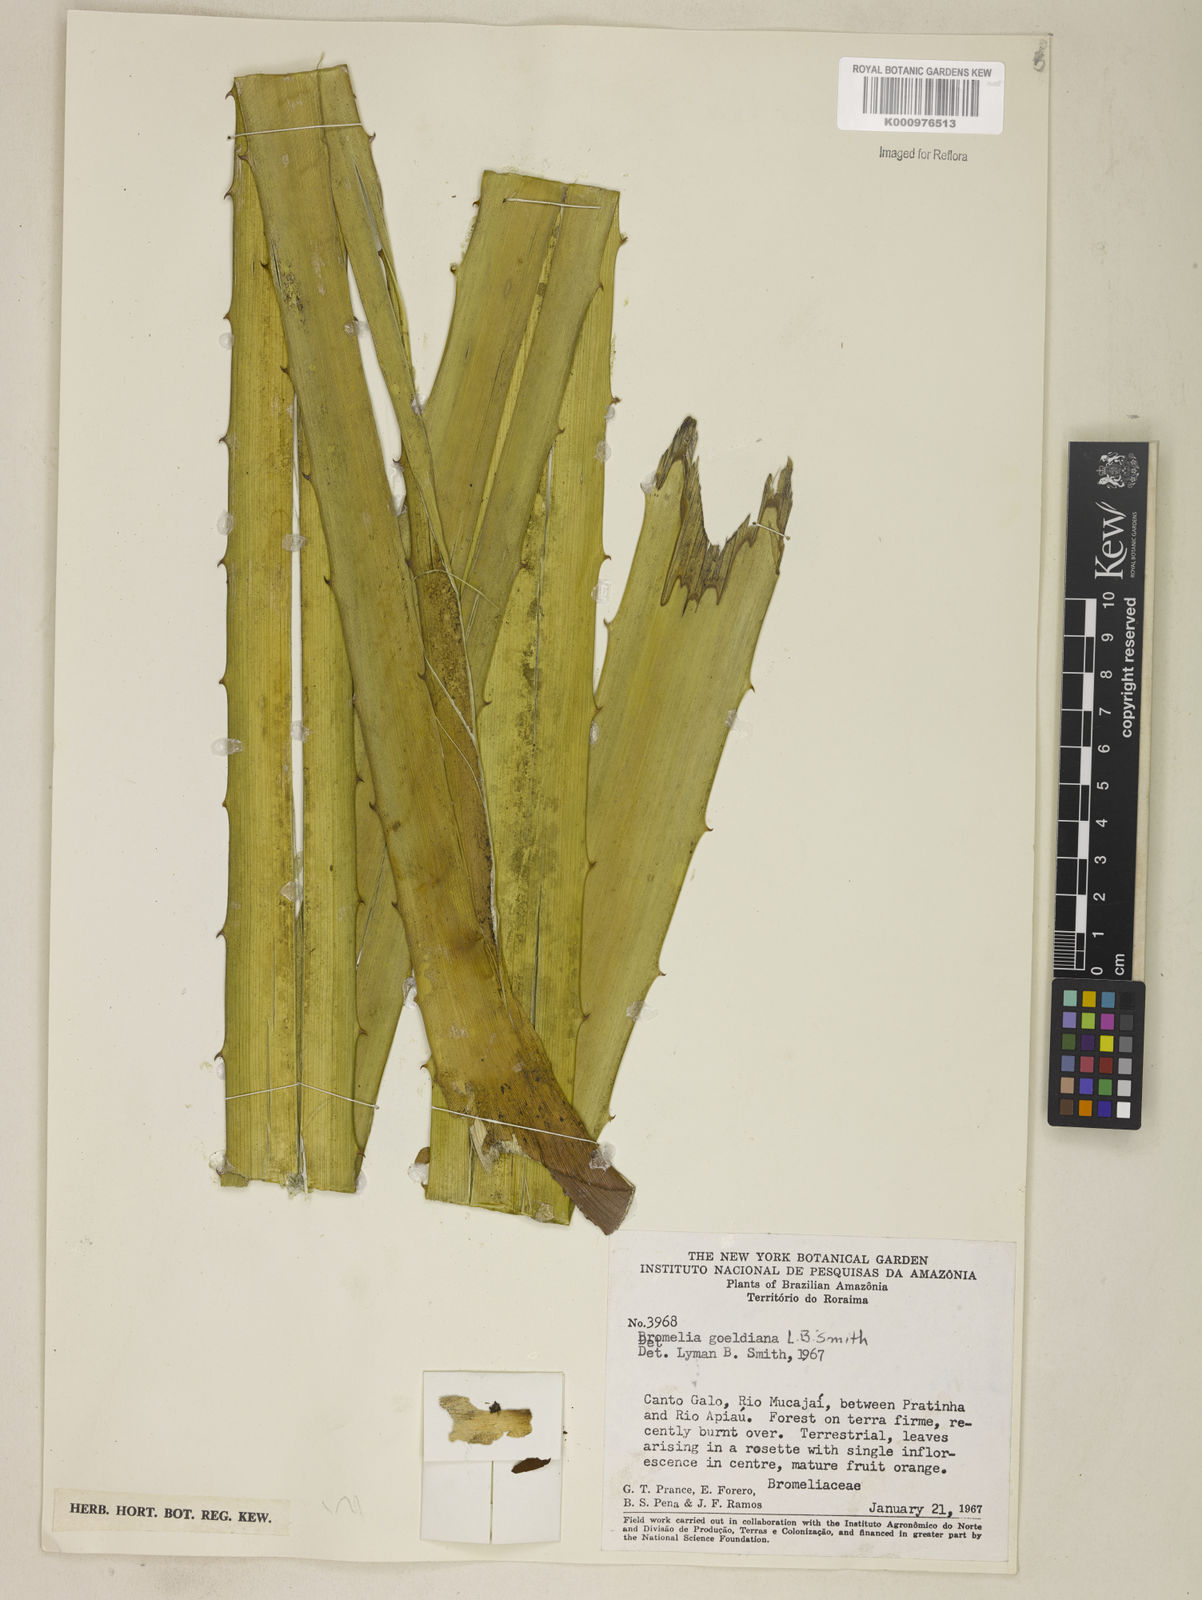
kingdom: Plantae
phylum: Tracheophyta
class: Liliopsida
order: Poales
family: Bromeliaceae
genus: Bromelia
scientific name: Bromelia goeldiana
